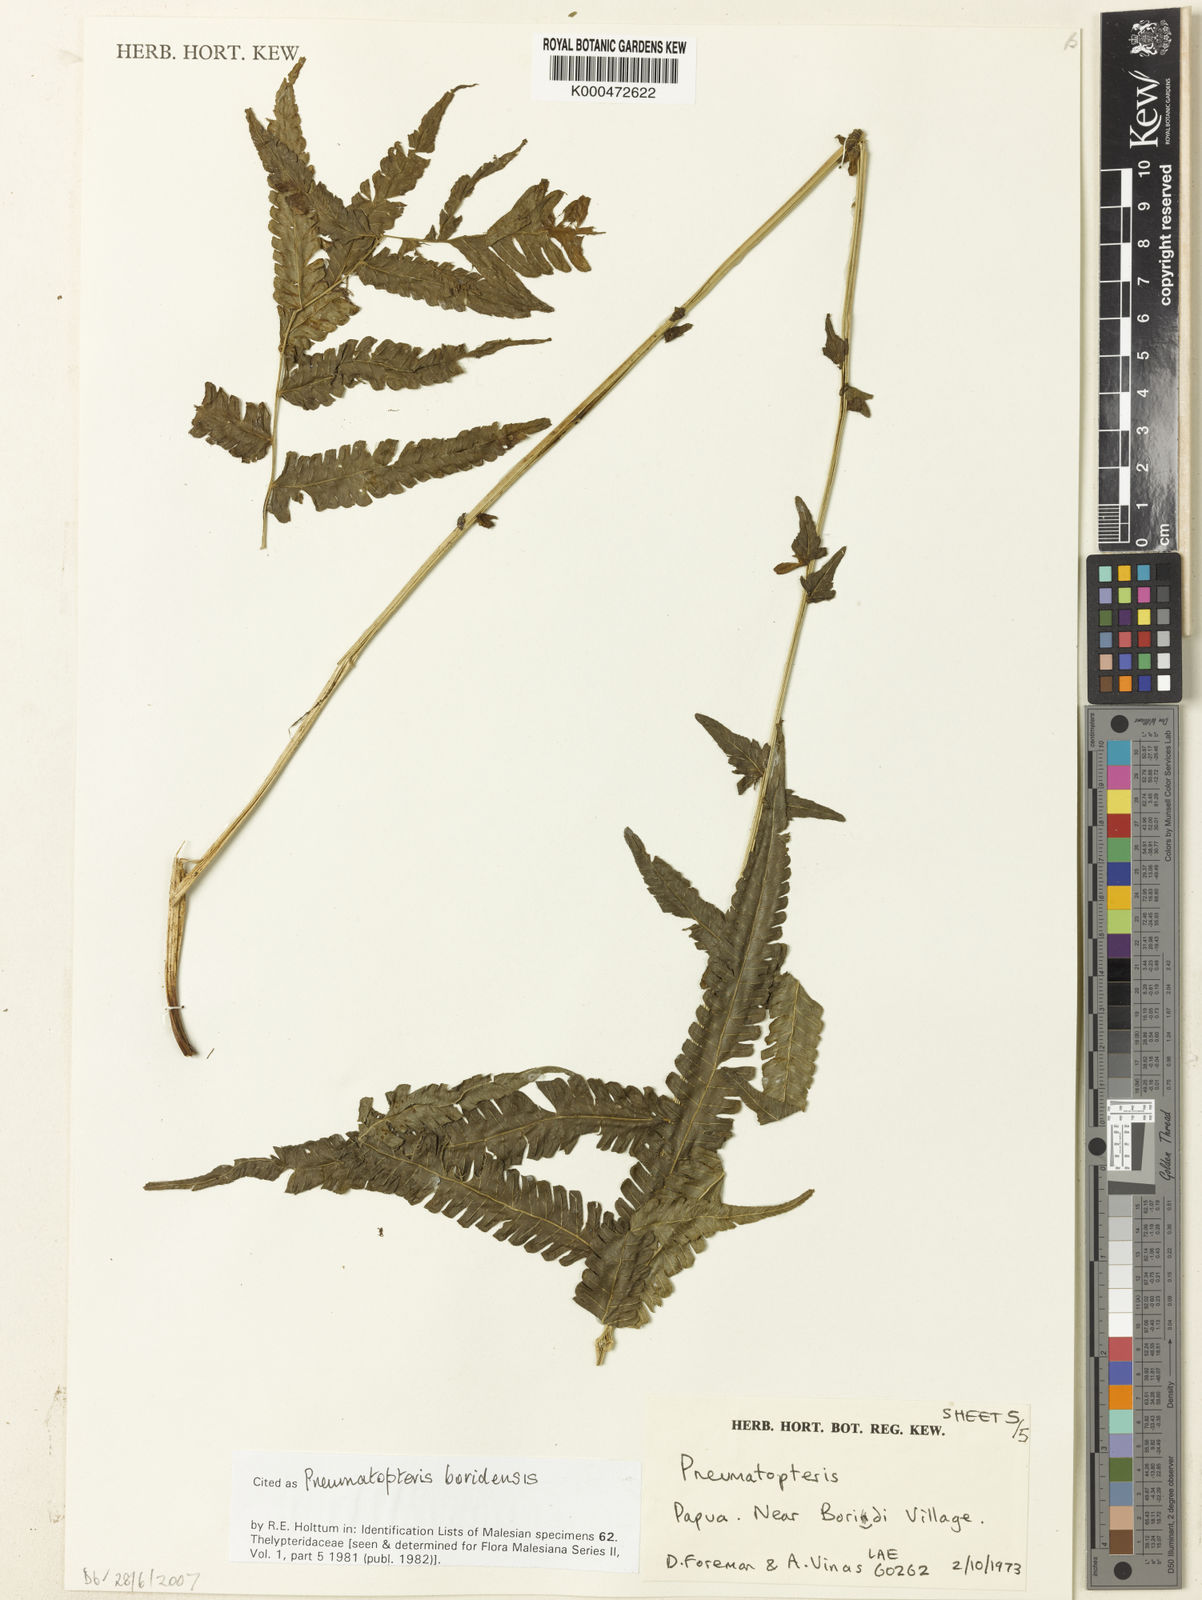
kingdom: Plantae
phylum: Tracheophyta
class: Polypodiopsida
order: Polypodiales
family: Thelypteridaceae
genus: Reholttumia
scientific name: Reholttumia boridensis
